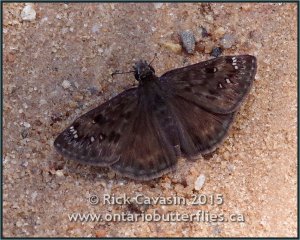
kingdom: Animalia
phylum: Arthropoda
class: Insecta
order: Lepidoptera
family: Hesperiidae
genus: Gesta
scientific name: Gesta
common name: Horace's Duskywing
